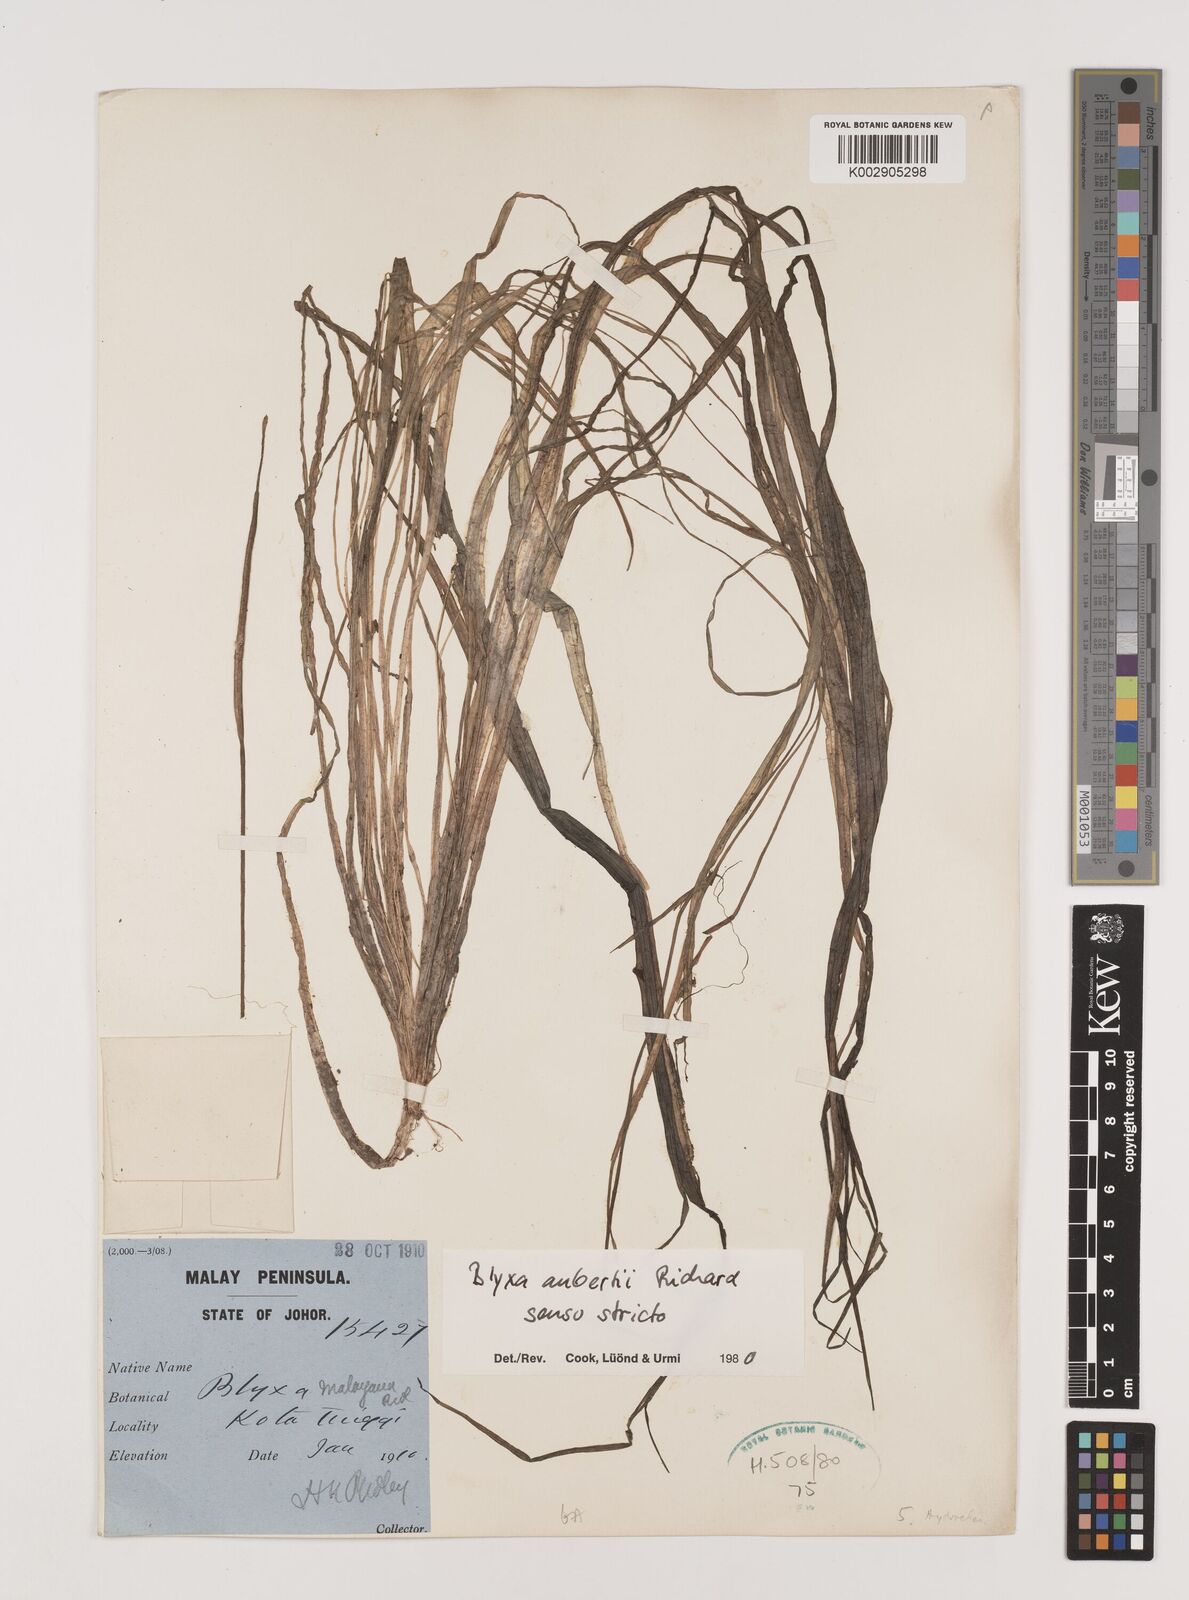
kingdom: Plantae
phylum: Tracheophyta
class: Liliopsida
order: Alismatales
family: Hydrocharitaceae
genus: Blyxa
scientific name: Blyxa aubertii
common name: Roundfruit blyxa
